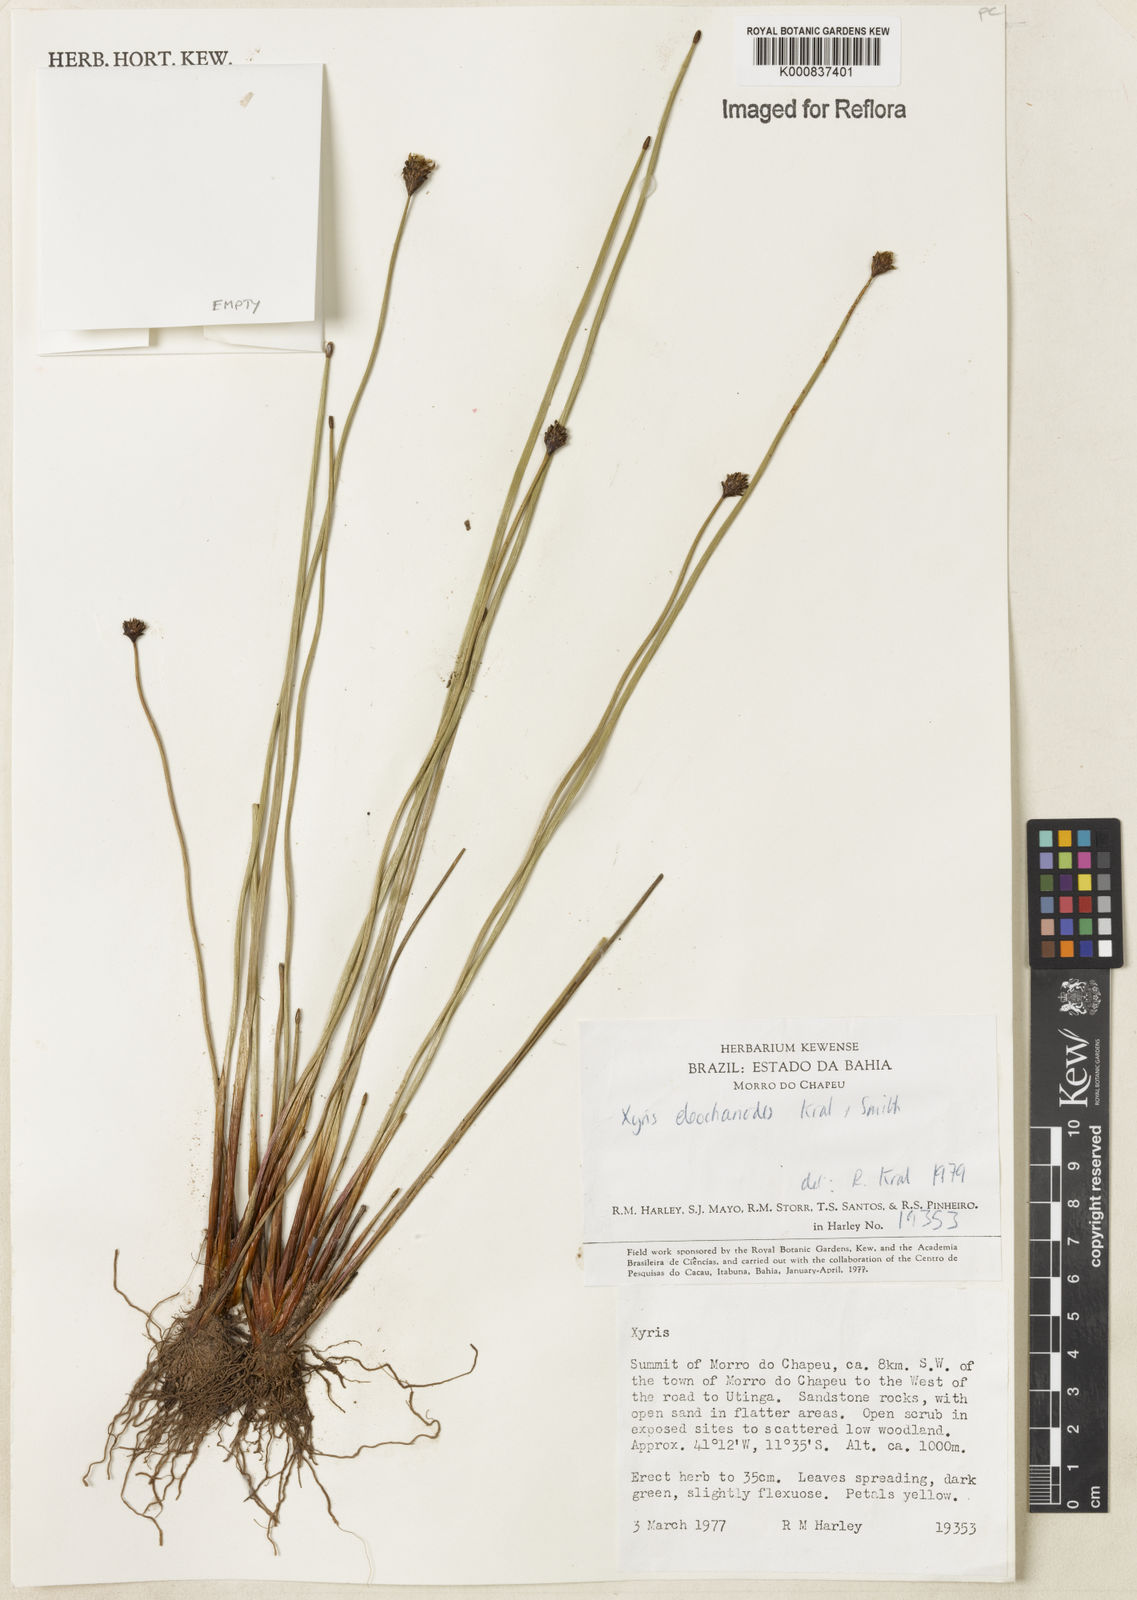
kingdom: Plantae
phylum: Tracheophyta
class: Liliopsida
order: Poales
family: Xyridaceae
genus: Xyris
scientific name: Xyris eleocharoides
